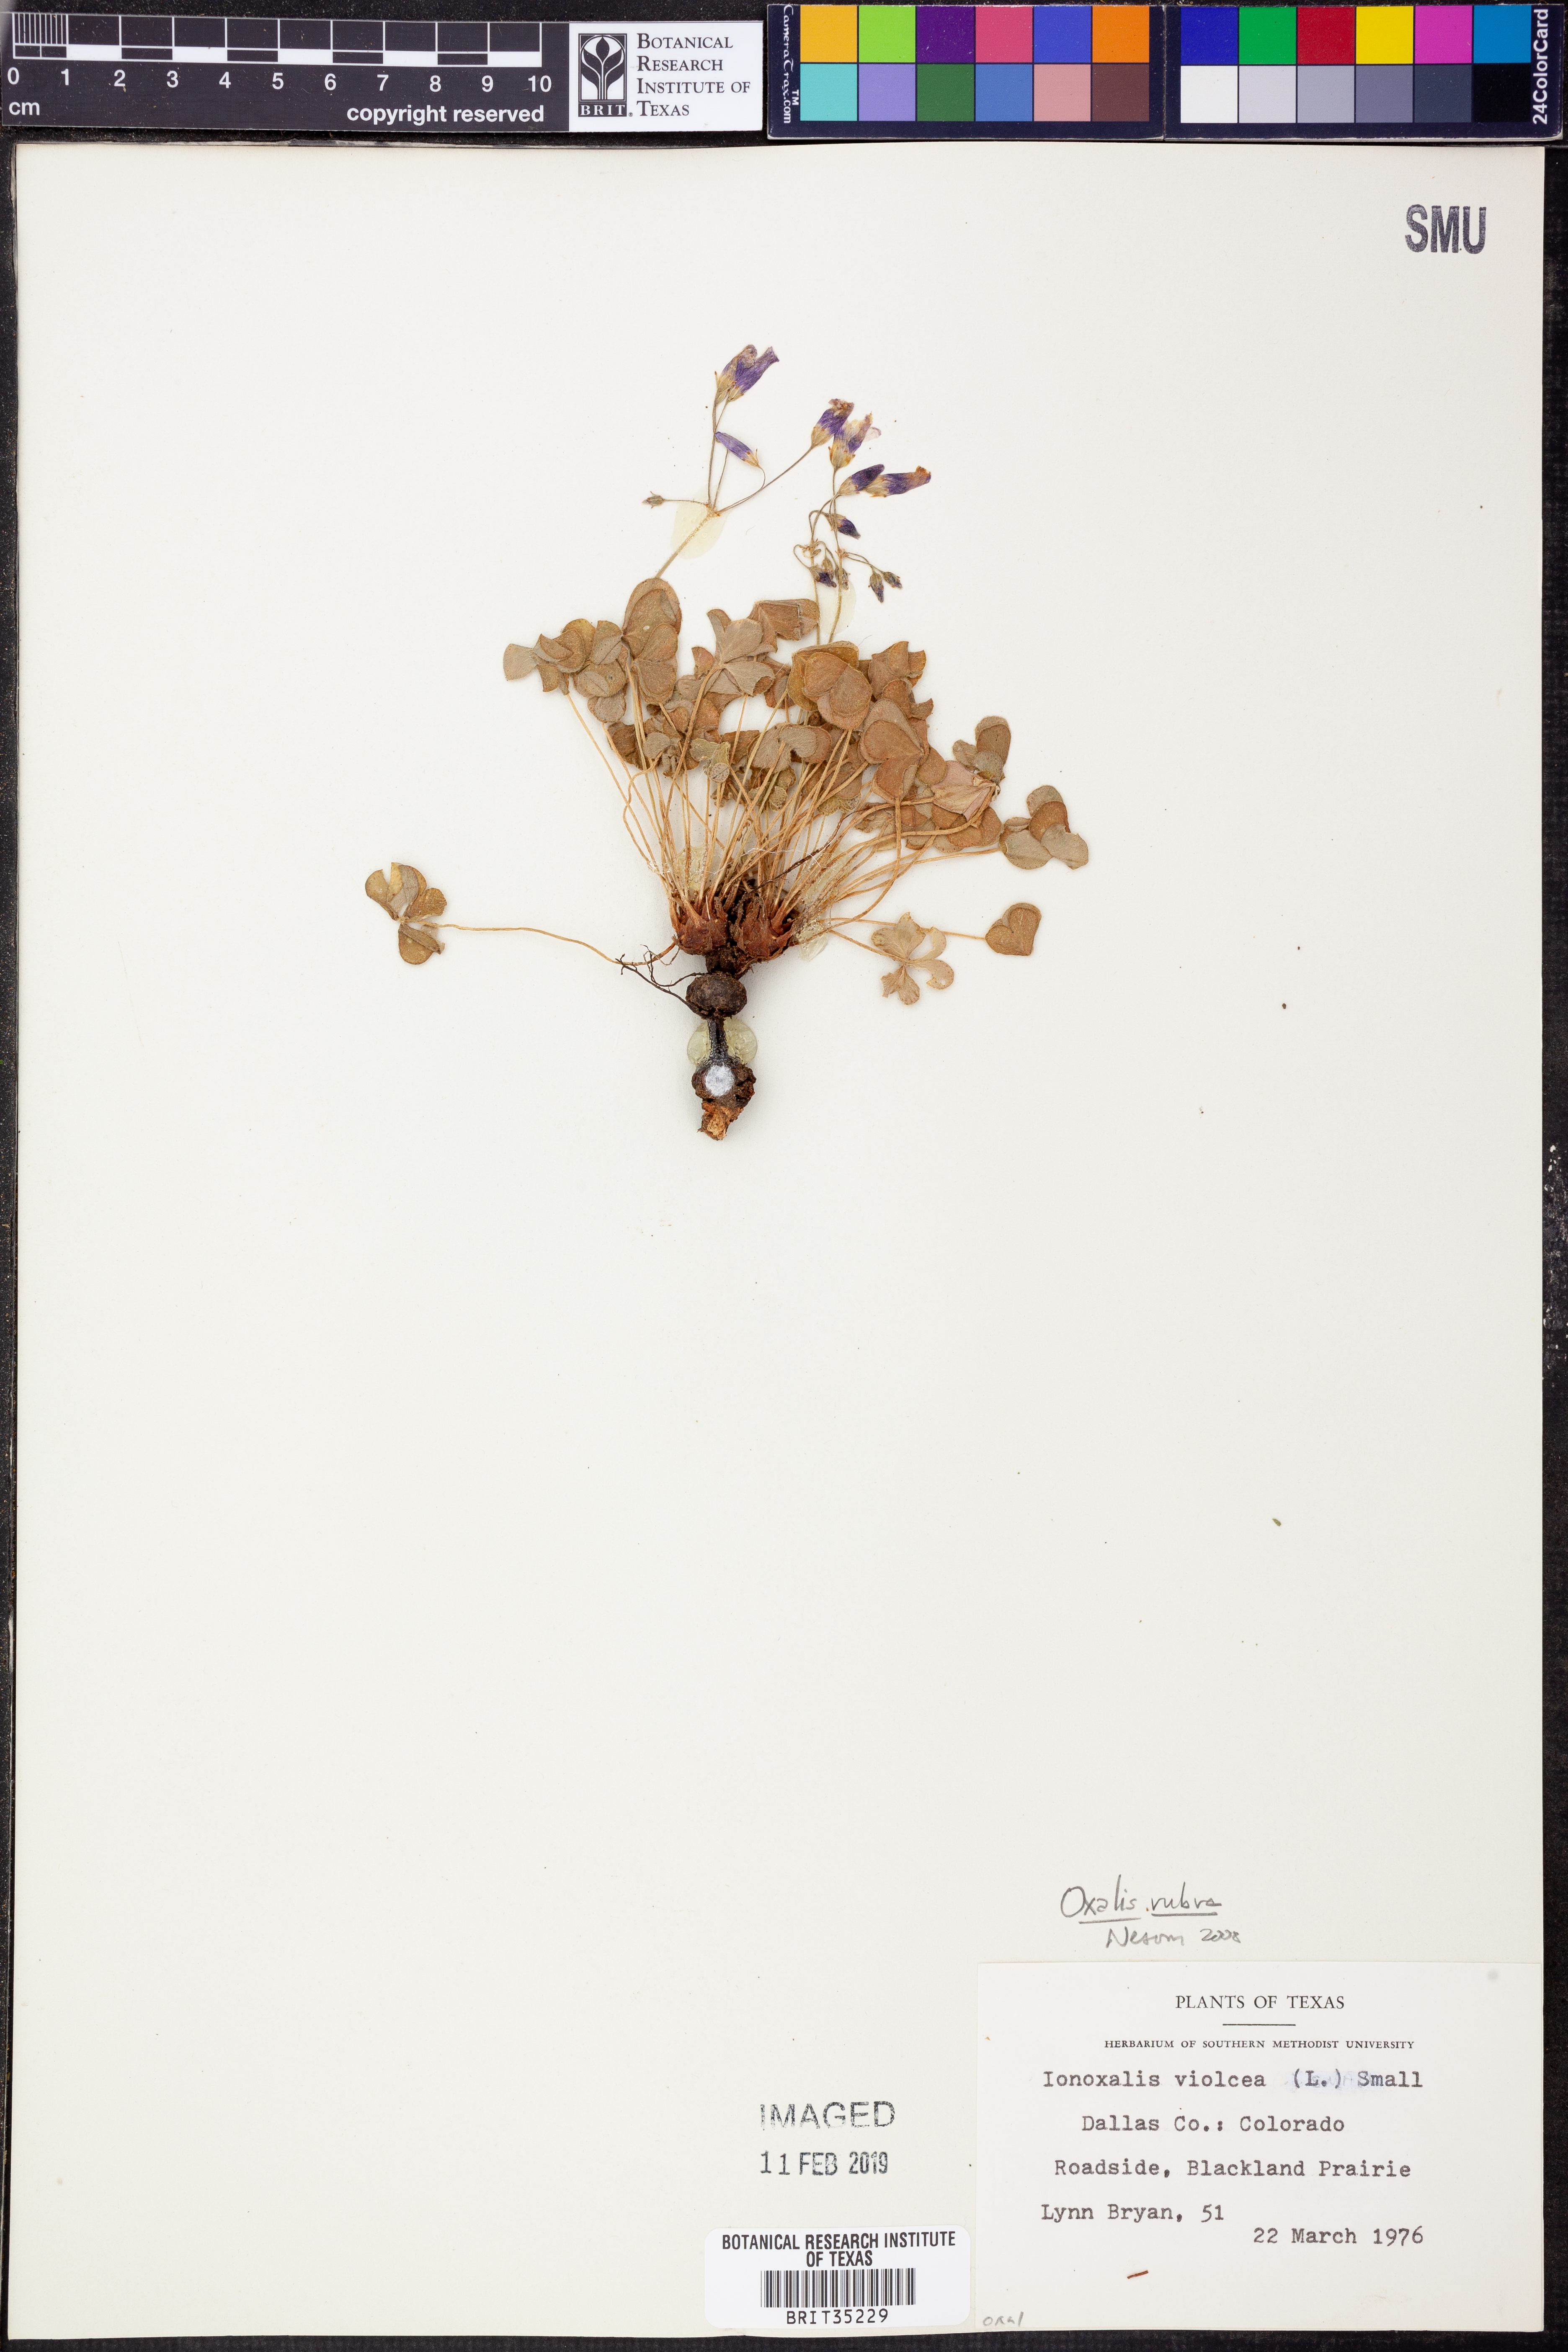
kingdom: Plantae
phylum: Tracheophyta
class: Magnoliopsida
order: Oxalidales
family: Oxalidaceae
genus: Oxalis
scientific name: Oxalis articulata
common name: Pink-sorrel
